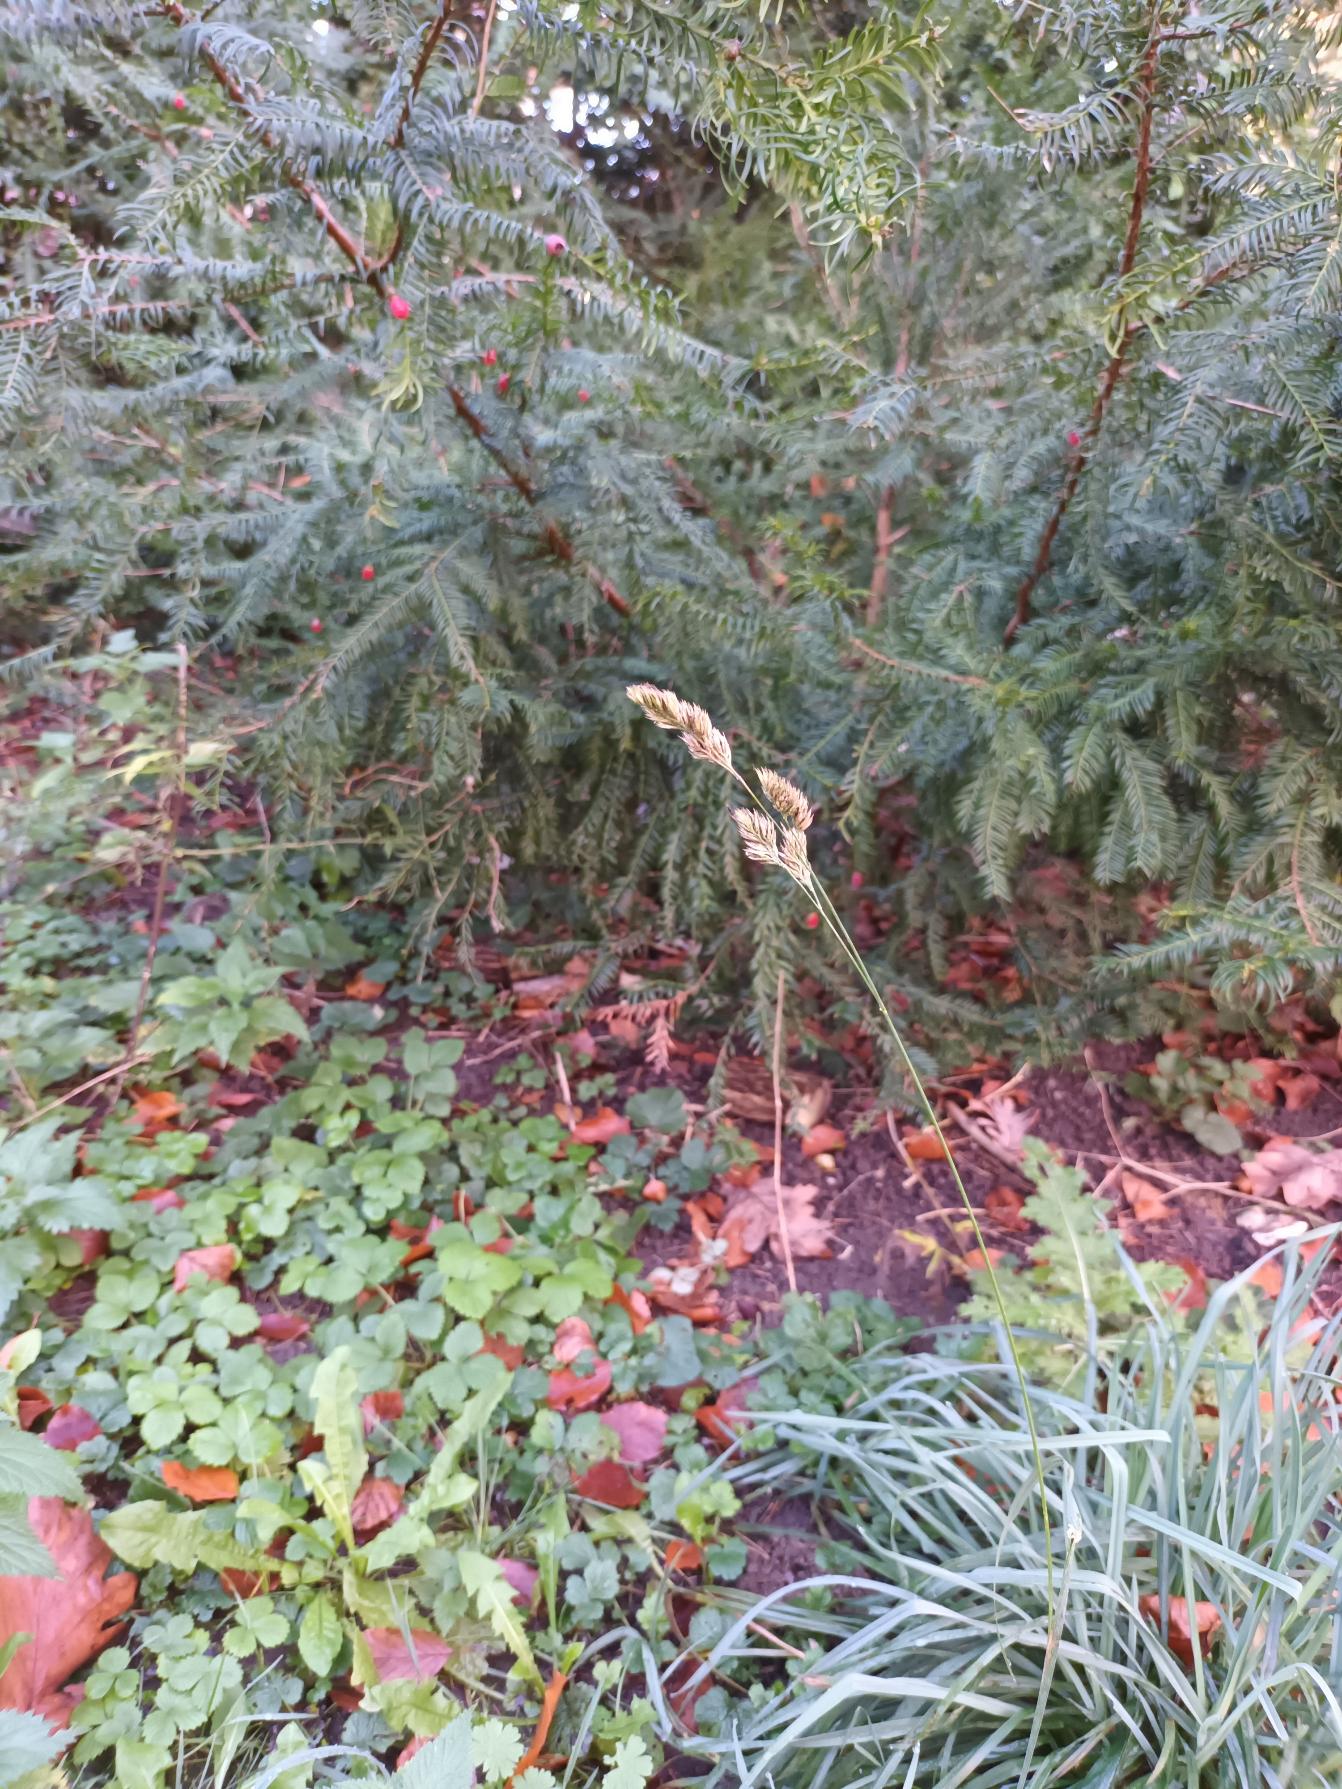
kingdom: Plantae
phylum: Tracheophyta
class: Liliopsida
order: Poales
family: Poaceae
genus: Dactylis
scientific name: Dactylis glomerata
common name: Almindelig hundegræs
